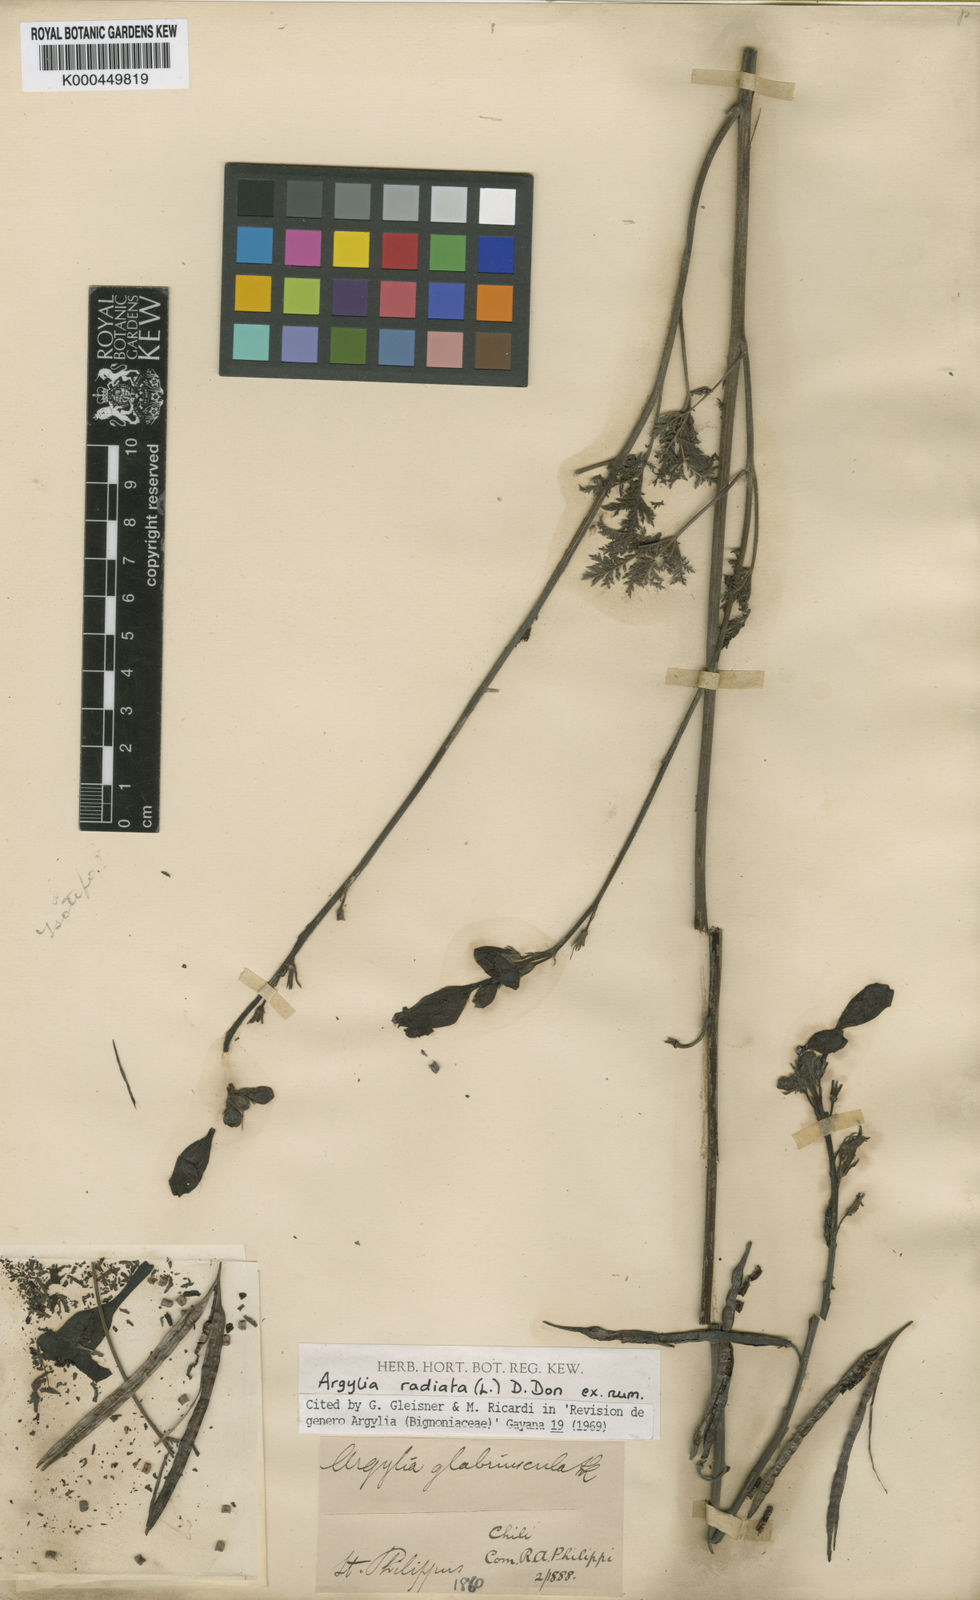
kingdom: Plantae
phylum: Tracheophyta
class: Magnoliopsida
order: Lamiales
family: Bignoniaceae
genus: Argylia
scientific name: Argylia radiata
